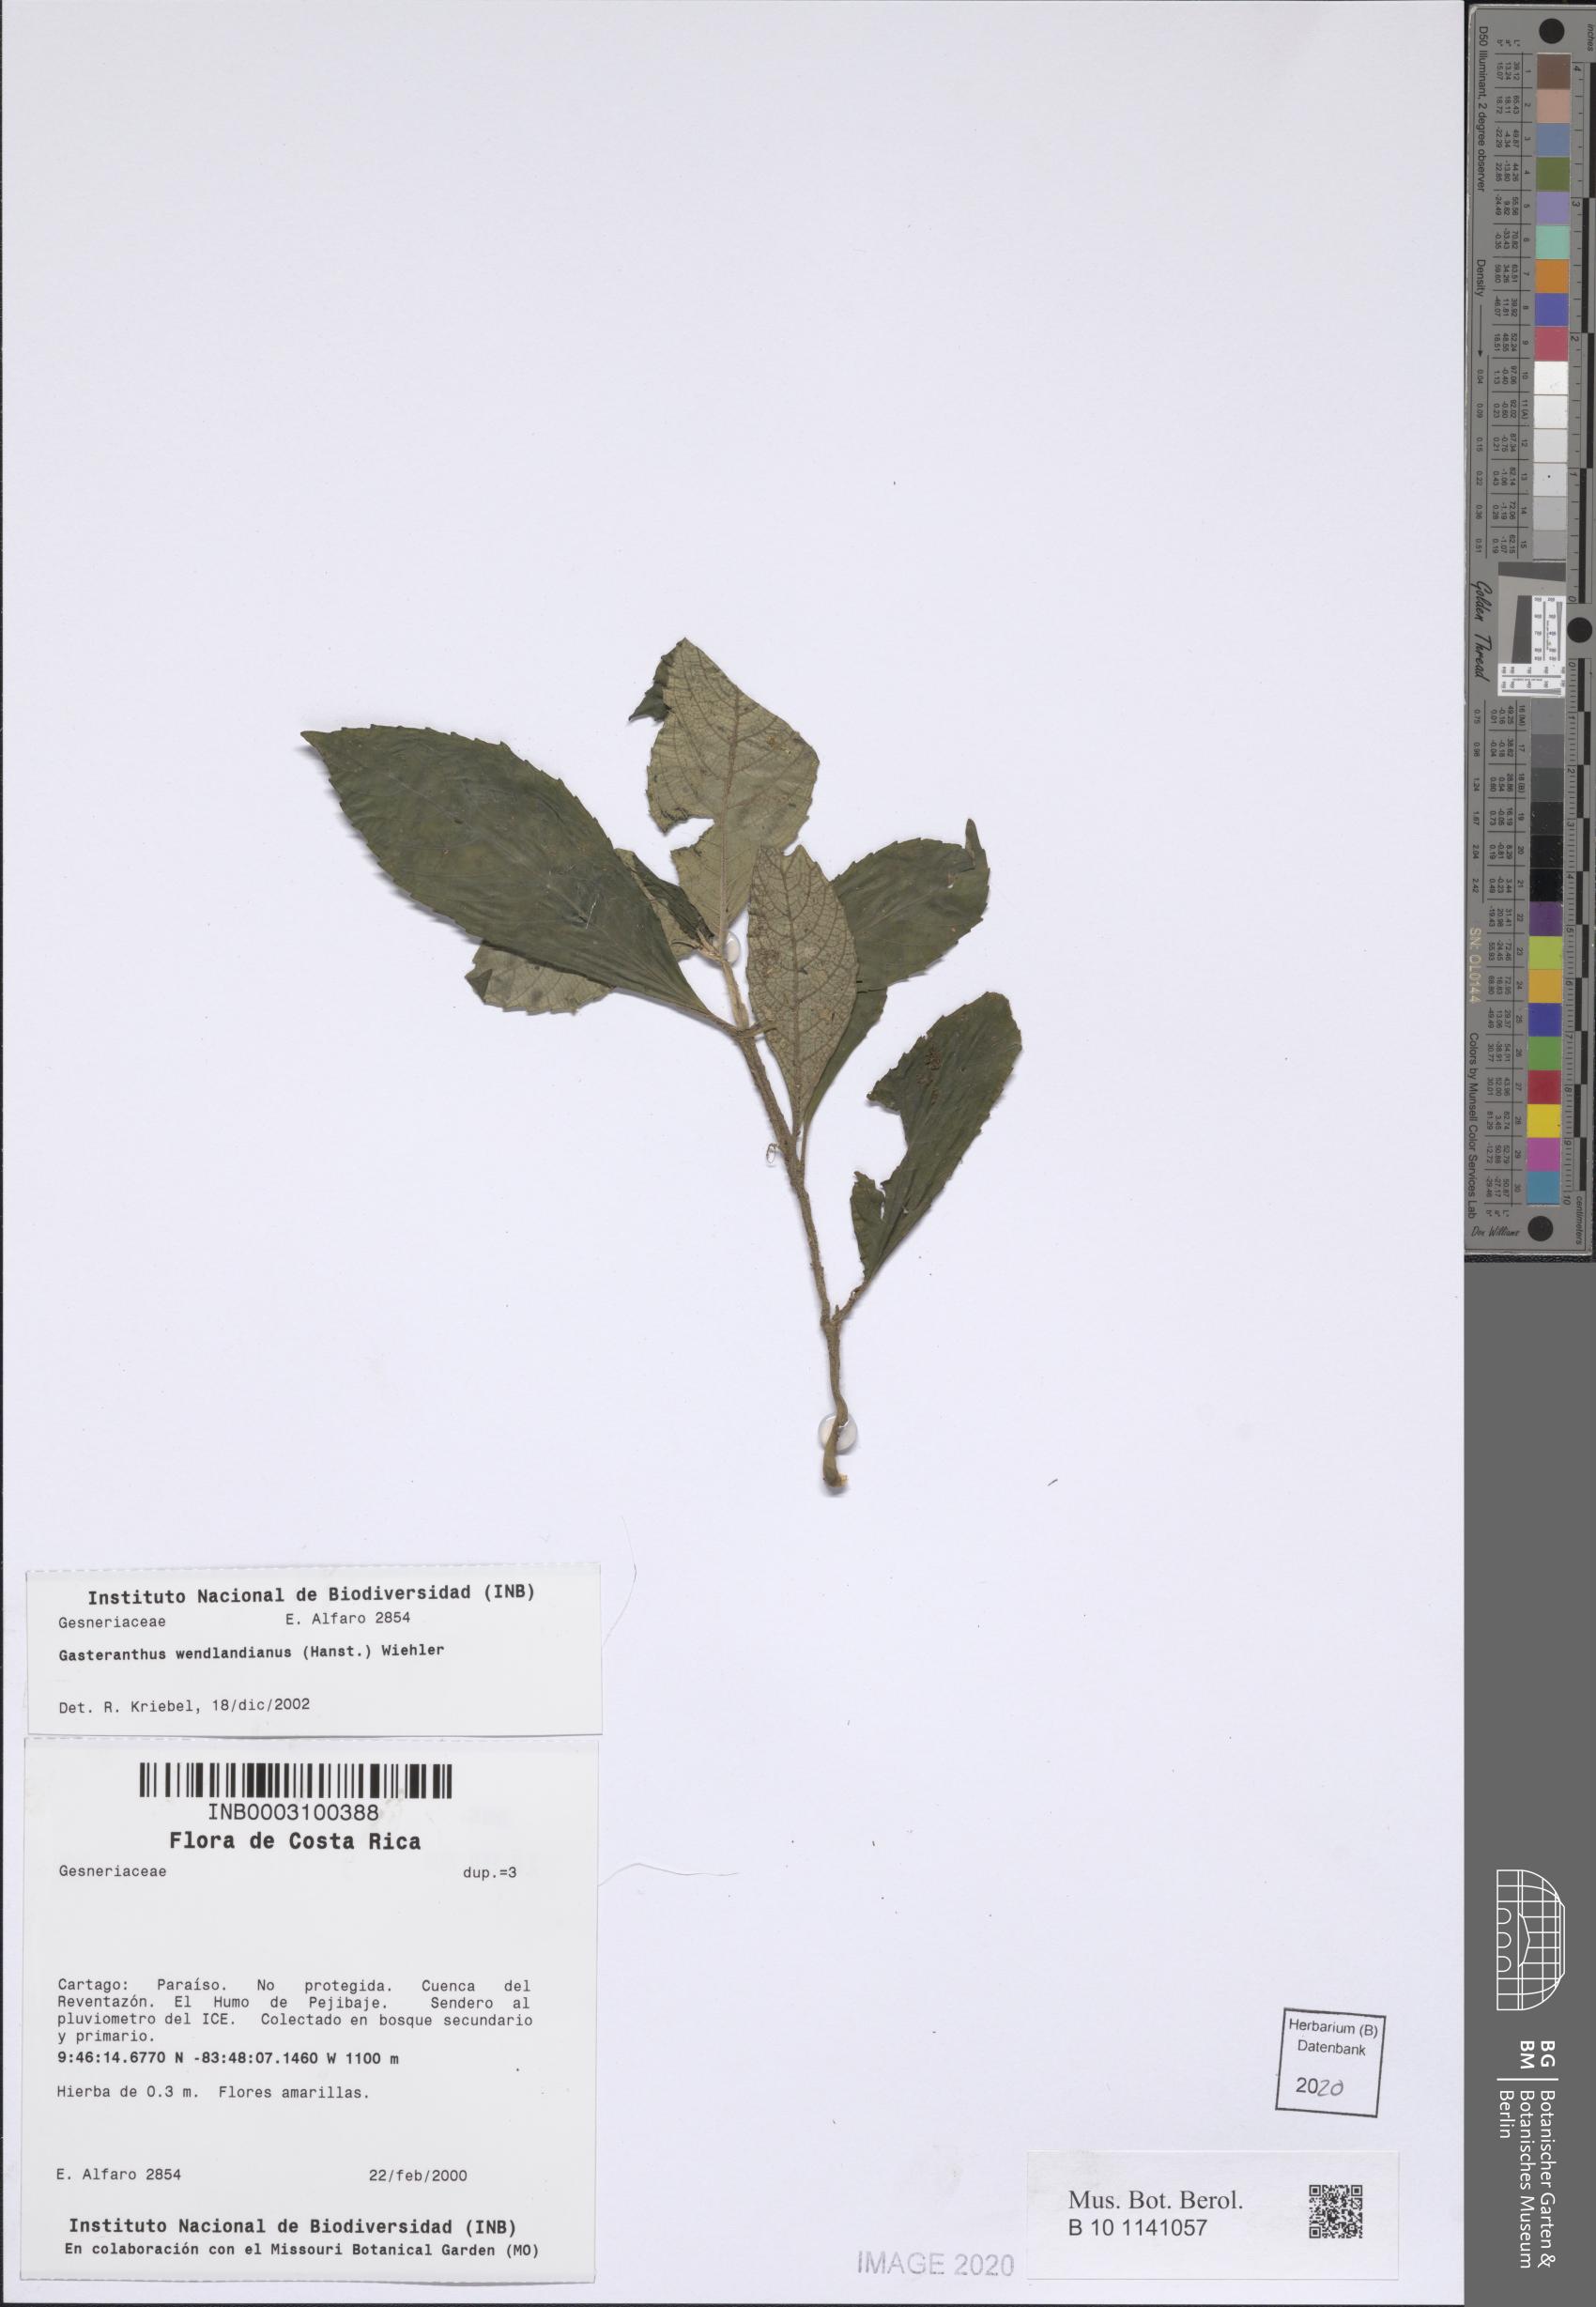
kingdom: Plantae
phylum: Tracheophyta
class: Magnoliopsida
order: Lamiales
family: Gesneriaceae
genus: Gasteranthus
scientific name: Gasteranthus wendlandianus
